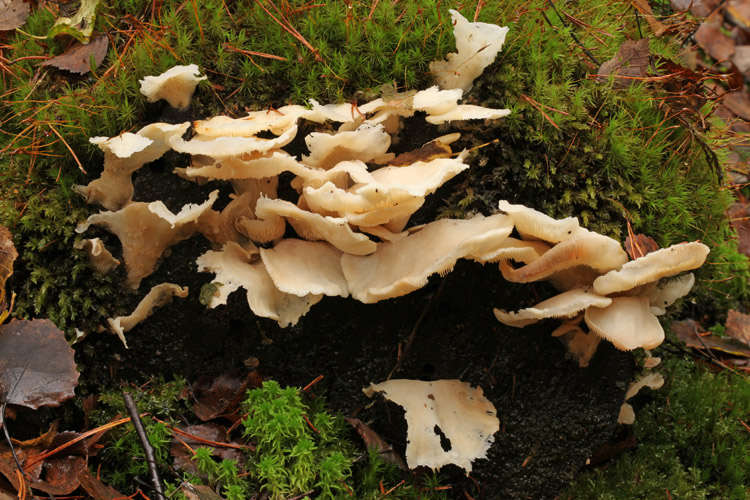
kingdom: Fungi
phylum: Basidiomycota
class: Agaricomycetes
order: Agaricales
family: Marasmiaceae
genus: Pleurocybella
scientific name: Pleurocybella porrigens
